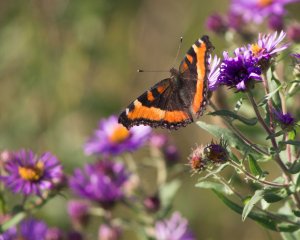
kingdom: Animalia
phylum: Arthropoda
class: Insecta
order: Lepidoptera
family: Nymphalidae
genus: Aglais
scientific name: Aglais milberti
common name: Milbert's Tortoiseshell
